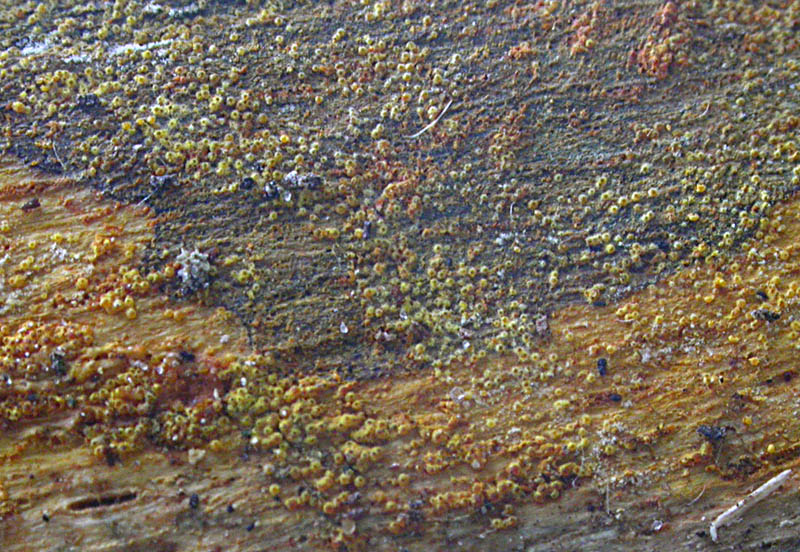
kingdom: Fungi
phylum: Ascomycota
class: Sordariomycetes
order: Hypocreales
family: Nectriaceae
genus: Chrysonectria
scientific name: Chrysonectria finisterrensis
